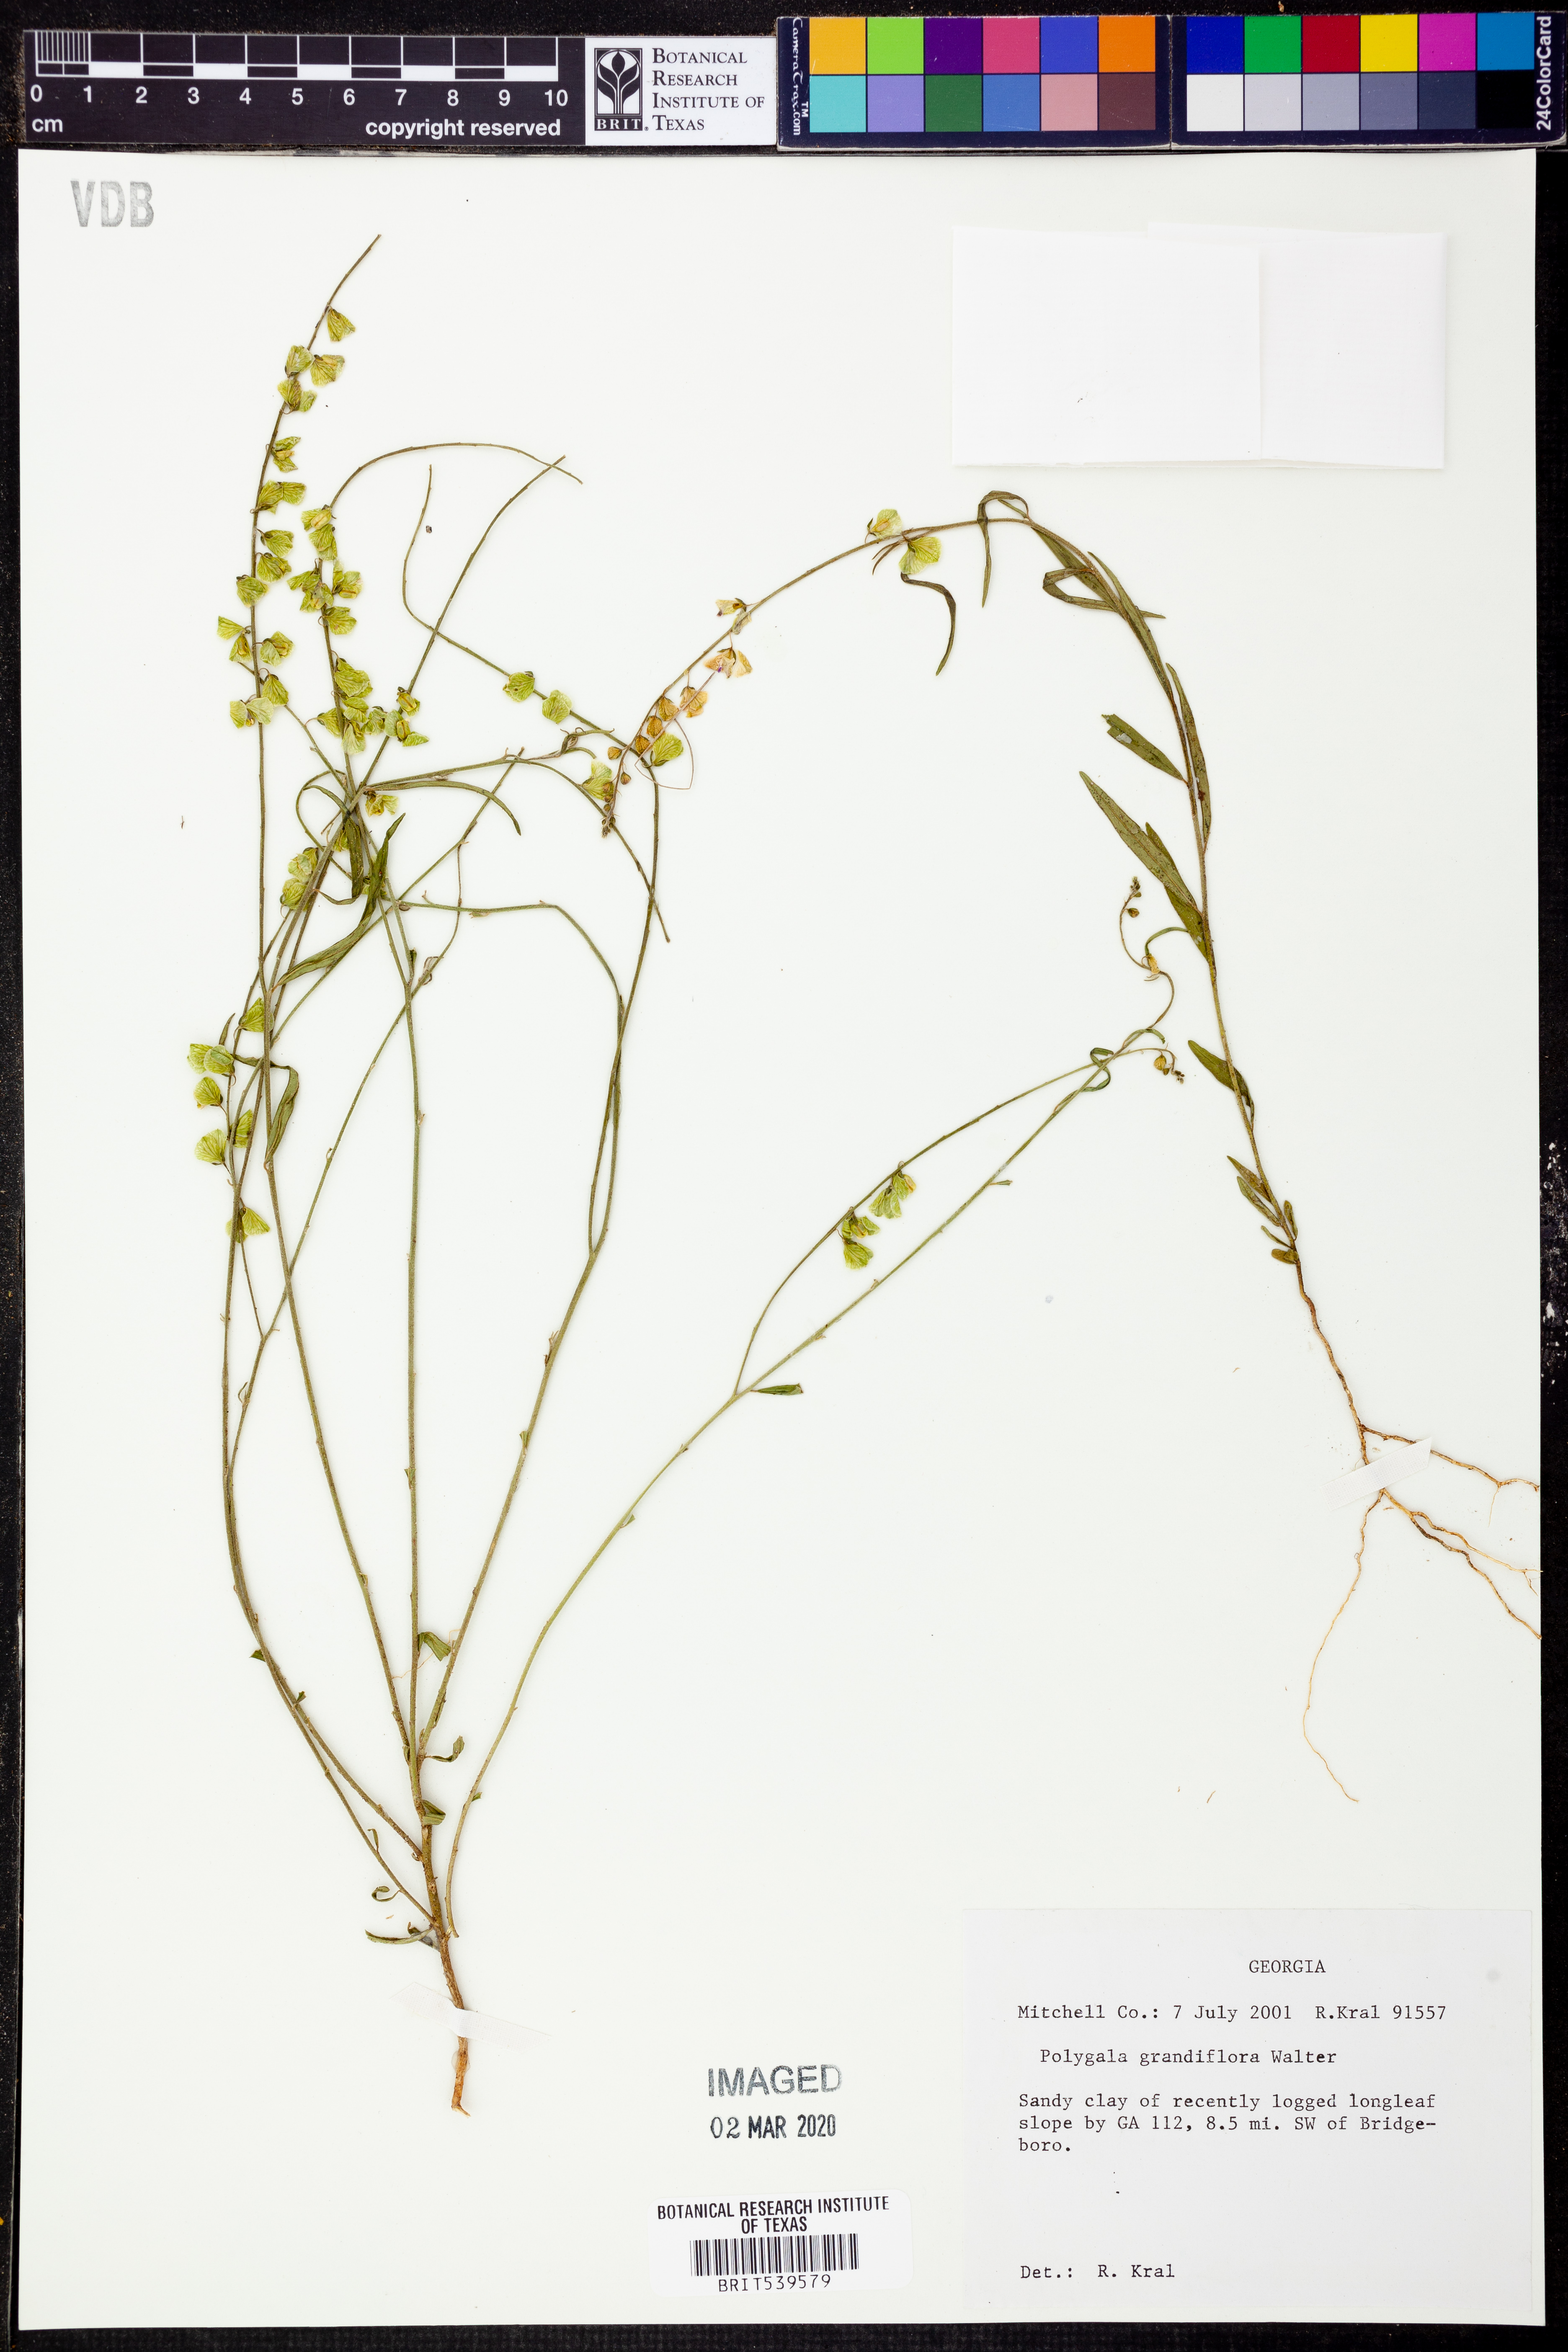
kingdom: Plantae
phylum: Tracheophyta
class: Magnoliopsida
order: Fabales
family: Polygalaceae
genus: Asemeia
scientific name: Asemeia grandiflora
